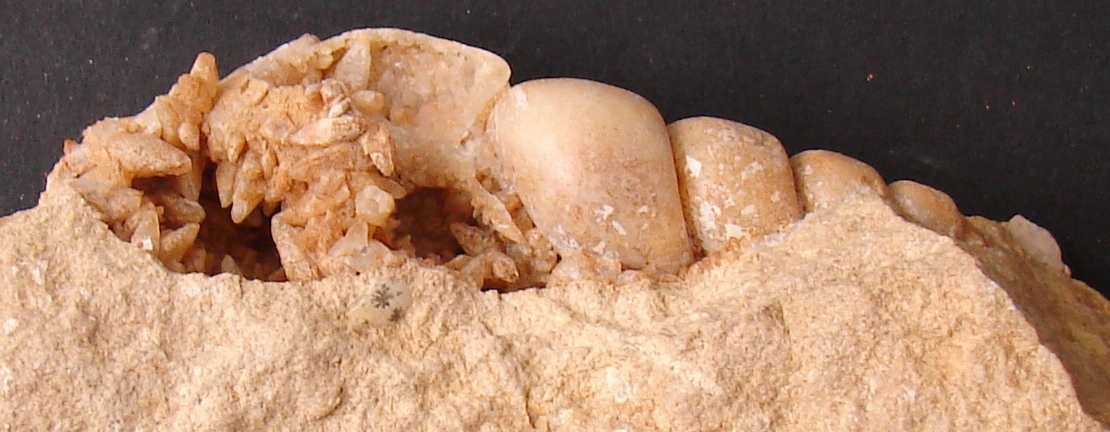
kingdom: Animalia
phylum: Mollusca
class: Gastropoda
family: Pseudomelaniidae
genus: Bourgetia
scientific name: Bourgetia
